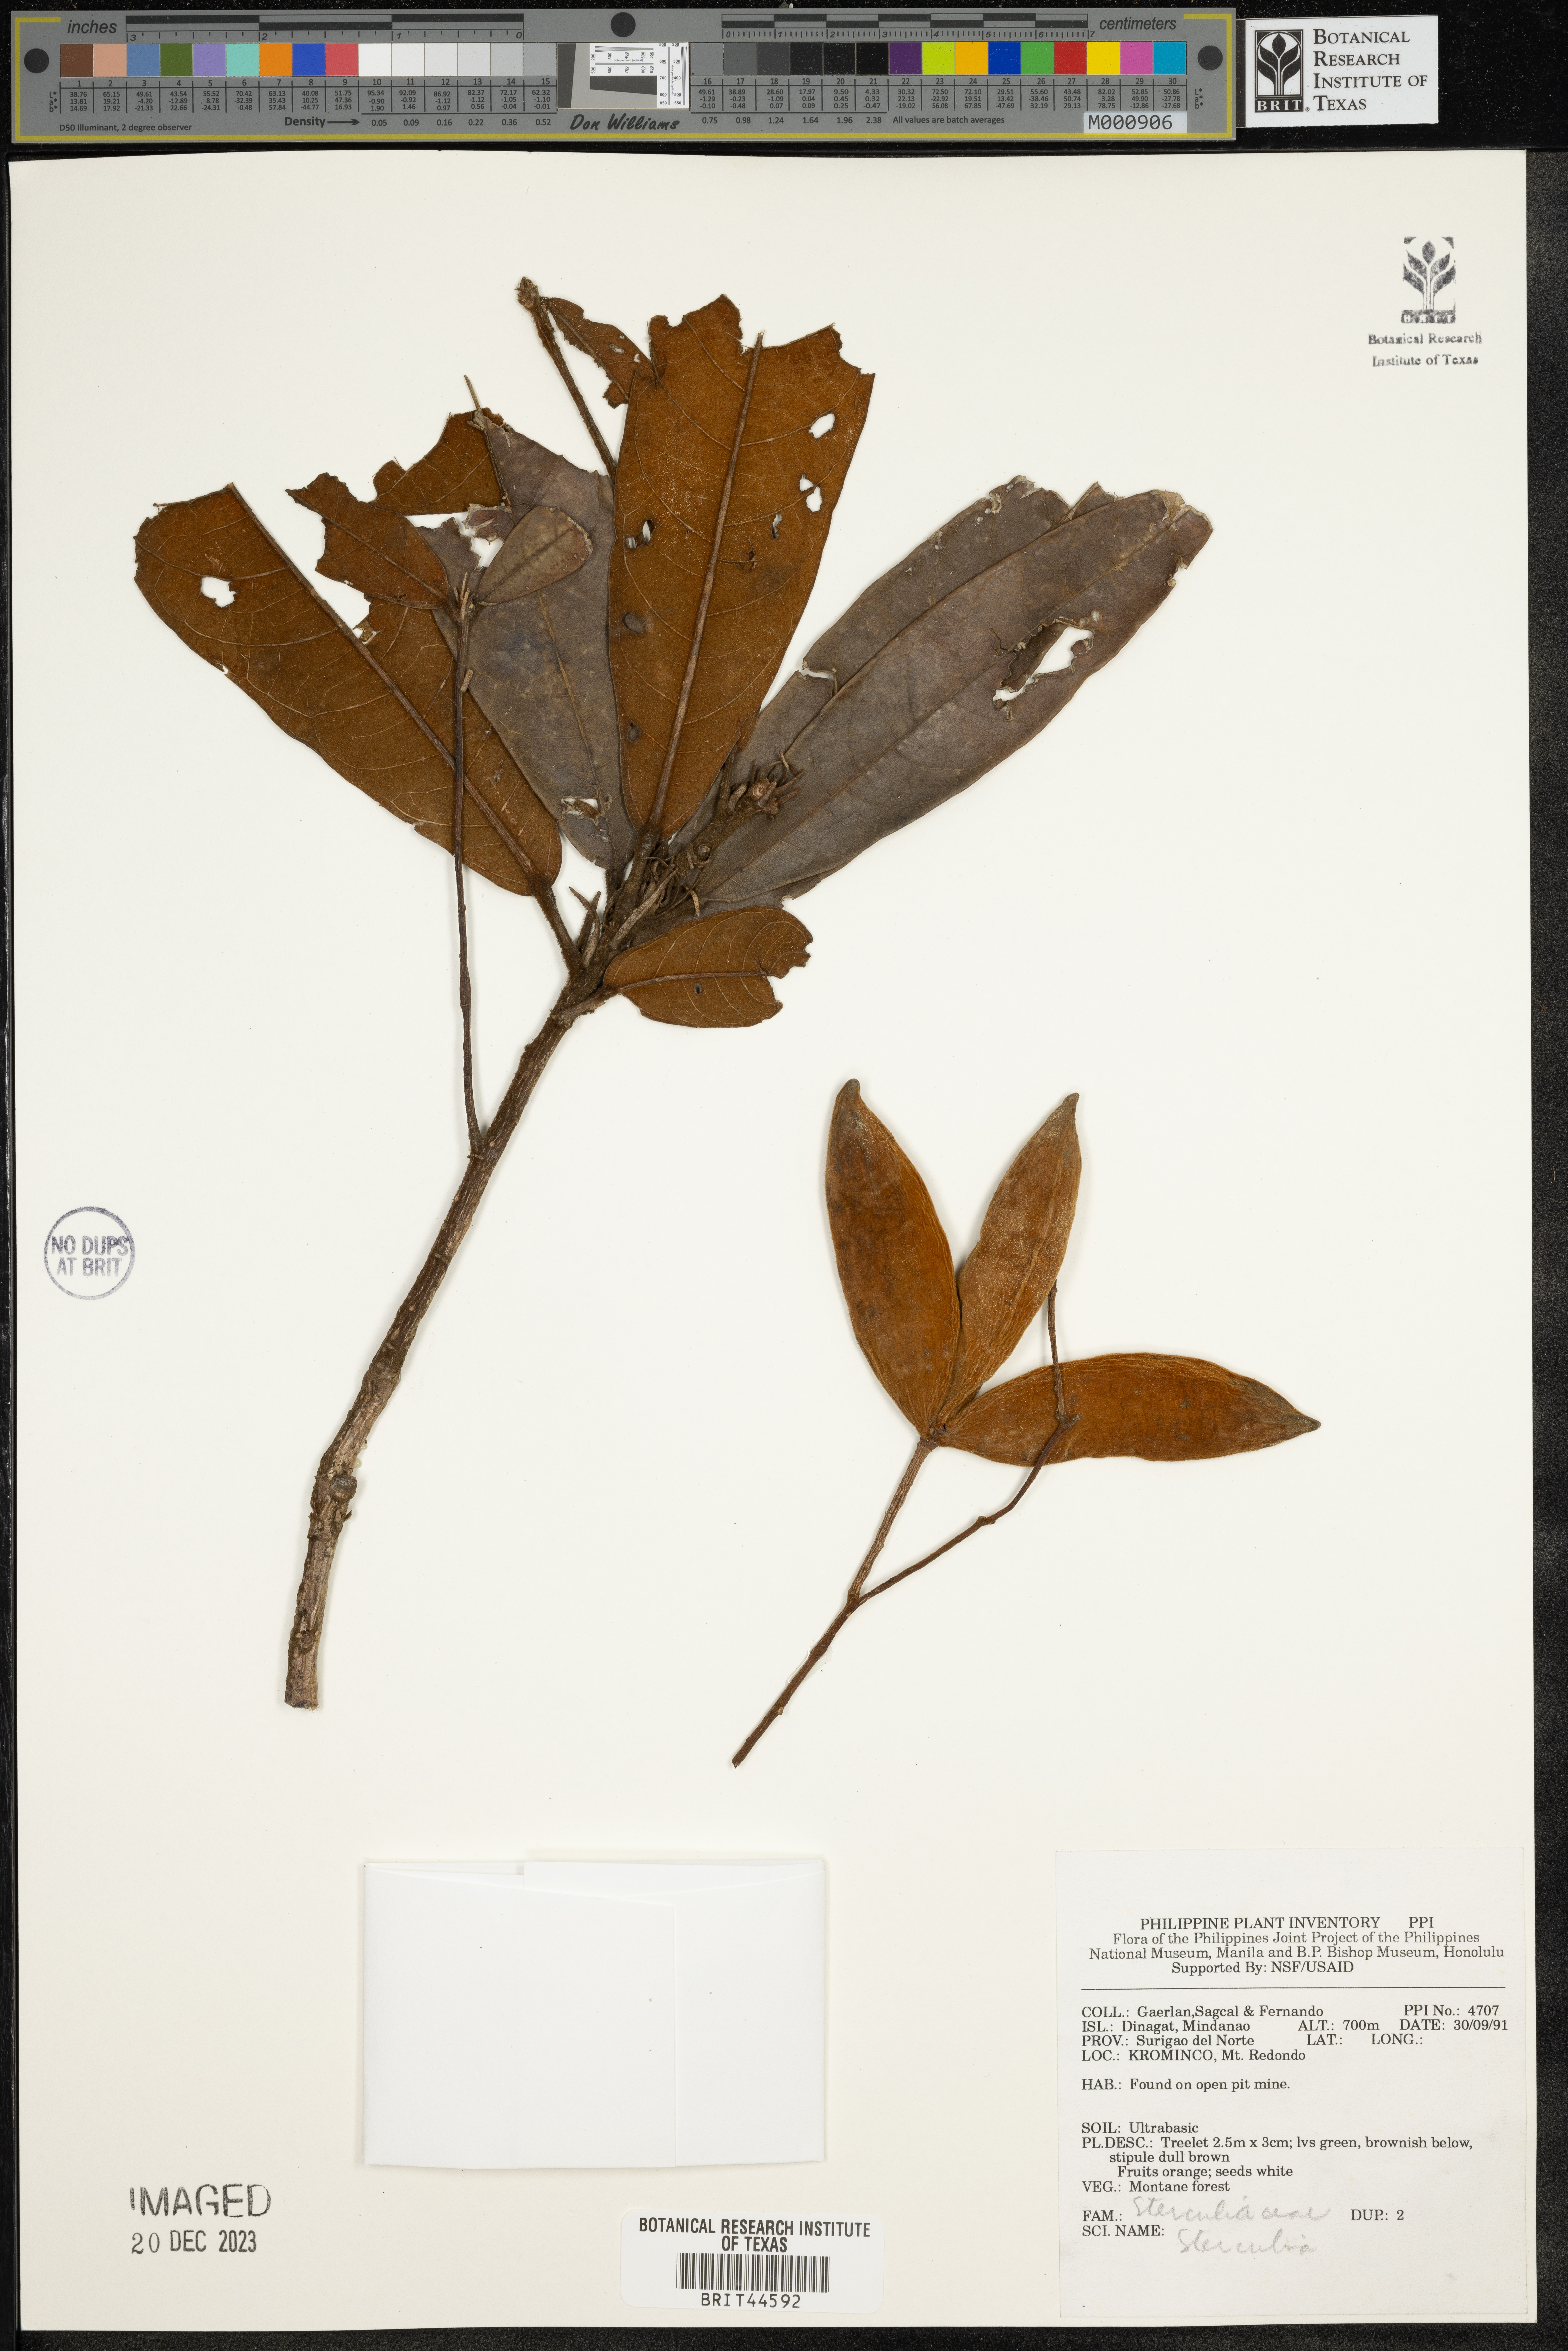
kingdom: Plantae
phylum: Tracheophyta
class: Magnoliopsida
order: Malvales
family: Malvaceae
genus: Sterculia
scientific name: Sterculia
